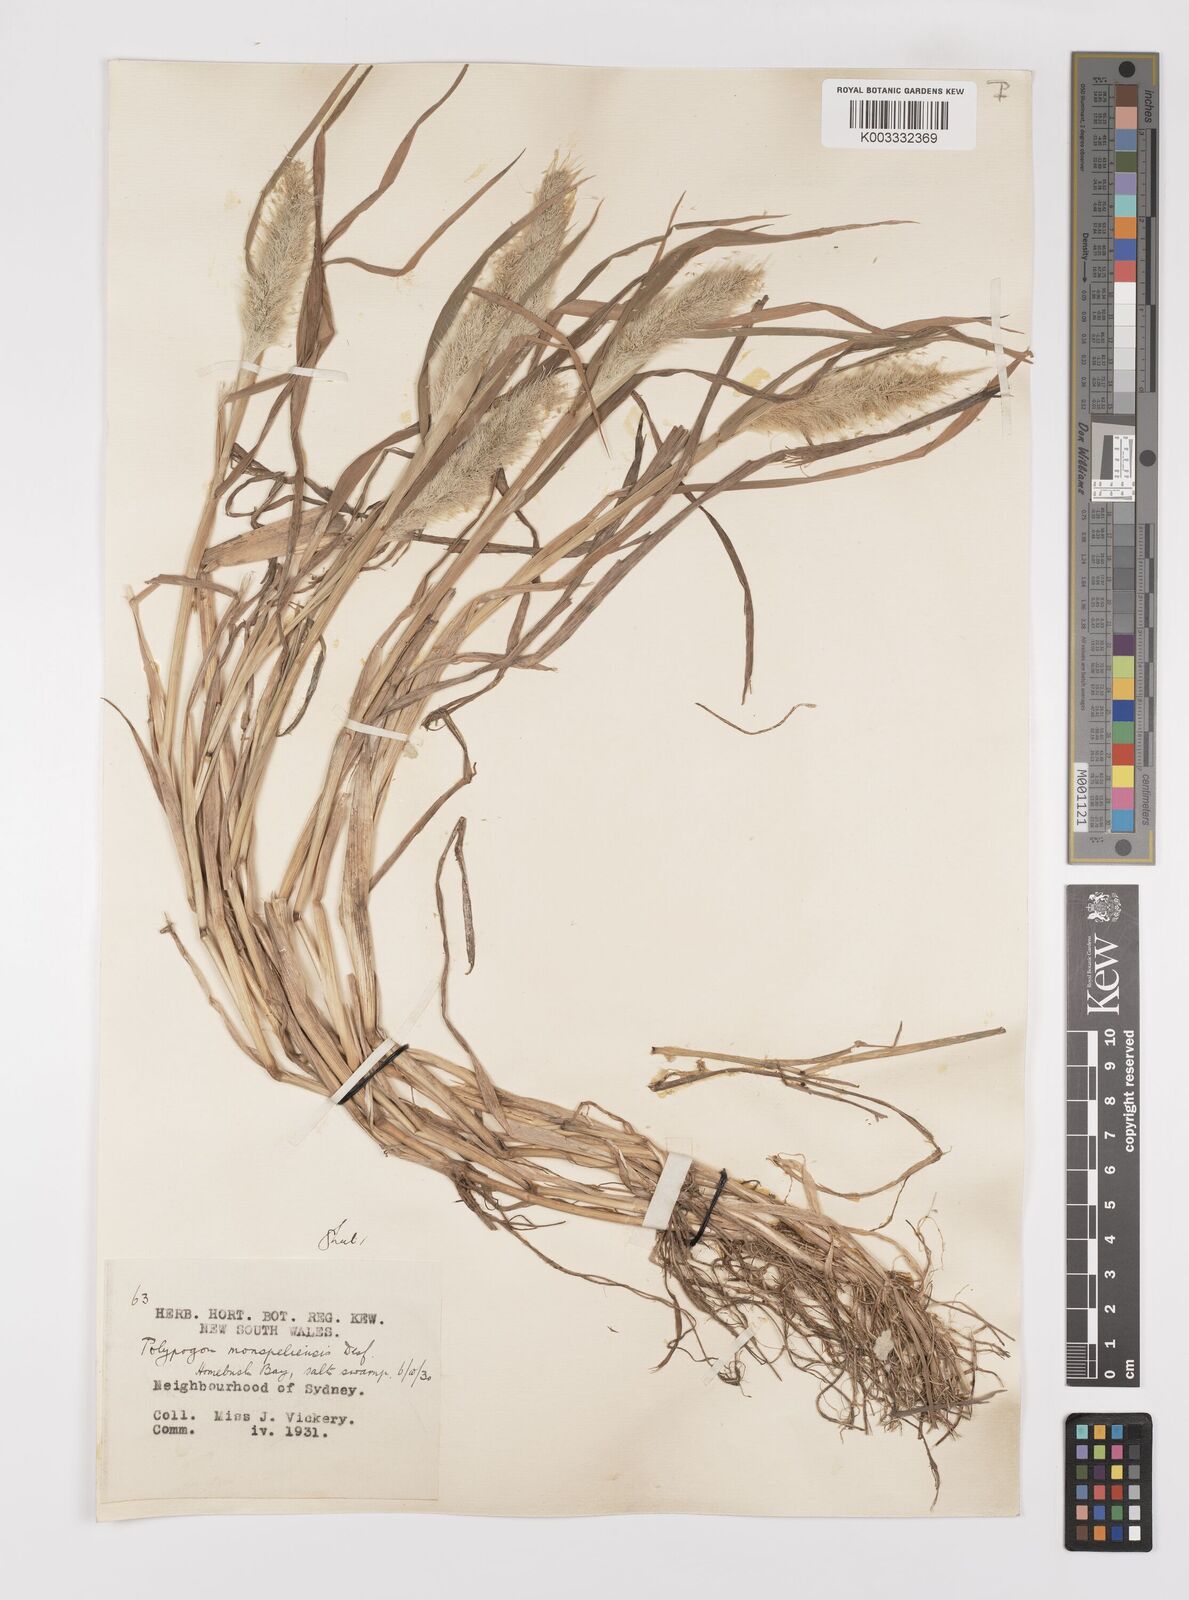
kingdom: Plantae
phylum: Tracheophyta
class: Liliopsida
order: Poales
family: Poaceae
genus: Polypogon
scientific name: Polypogon monspeliensis
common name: Annual rabbitsfoot grass
